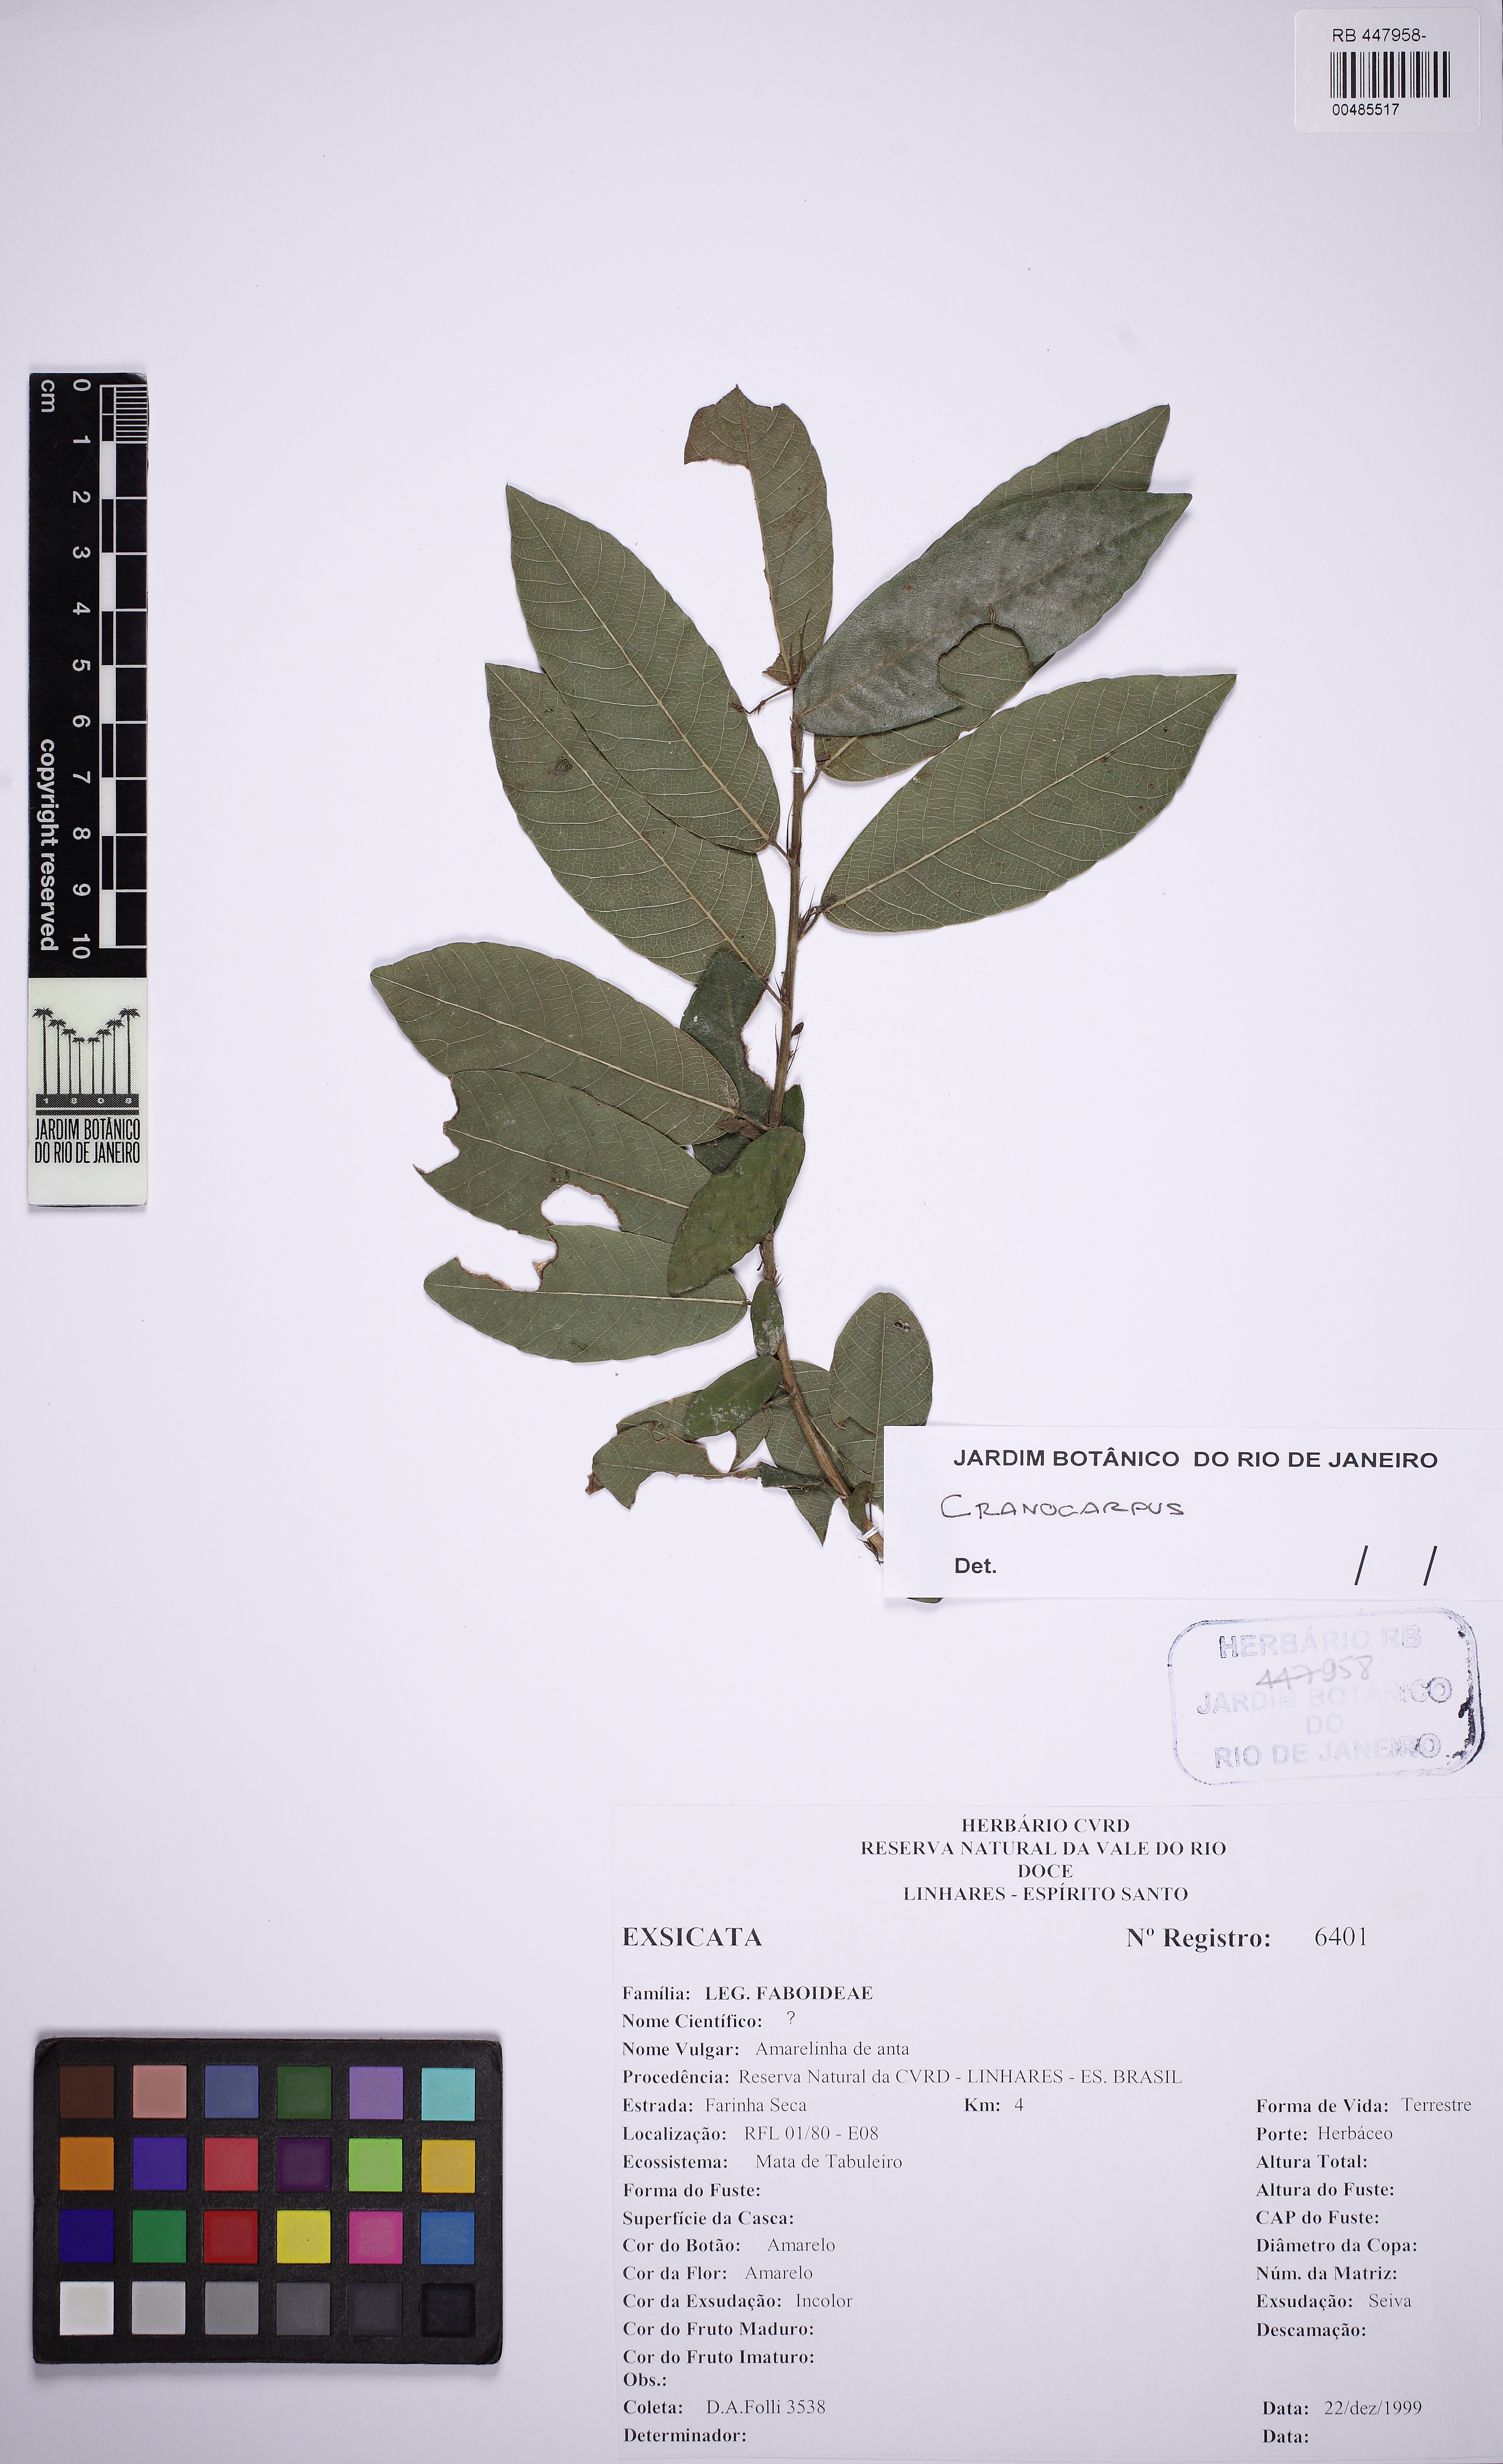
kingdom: Plantae
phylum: Tracheophyta
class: Magnoliopsida
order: Fabales
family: Fabaceae
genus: Cranocarpus
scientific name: Cranocarpus mezii
